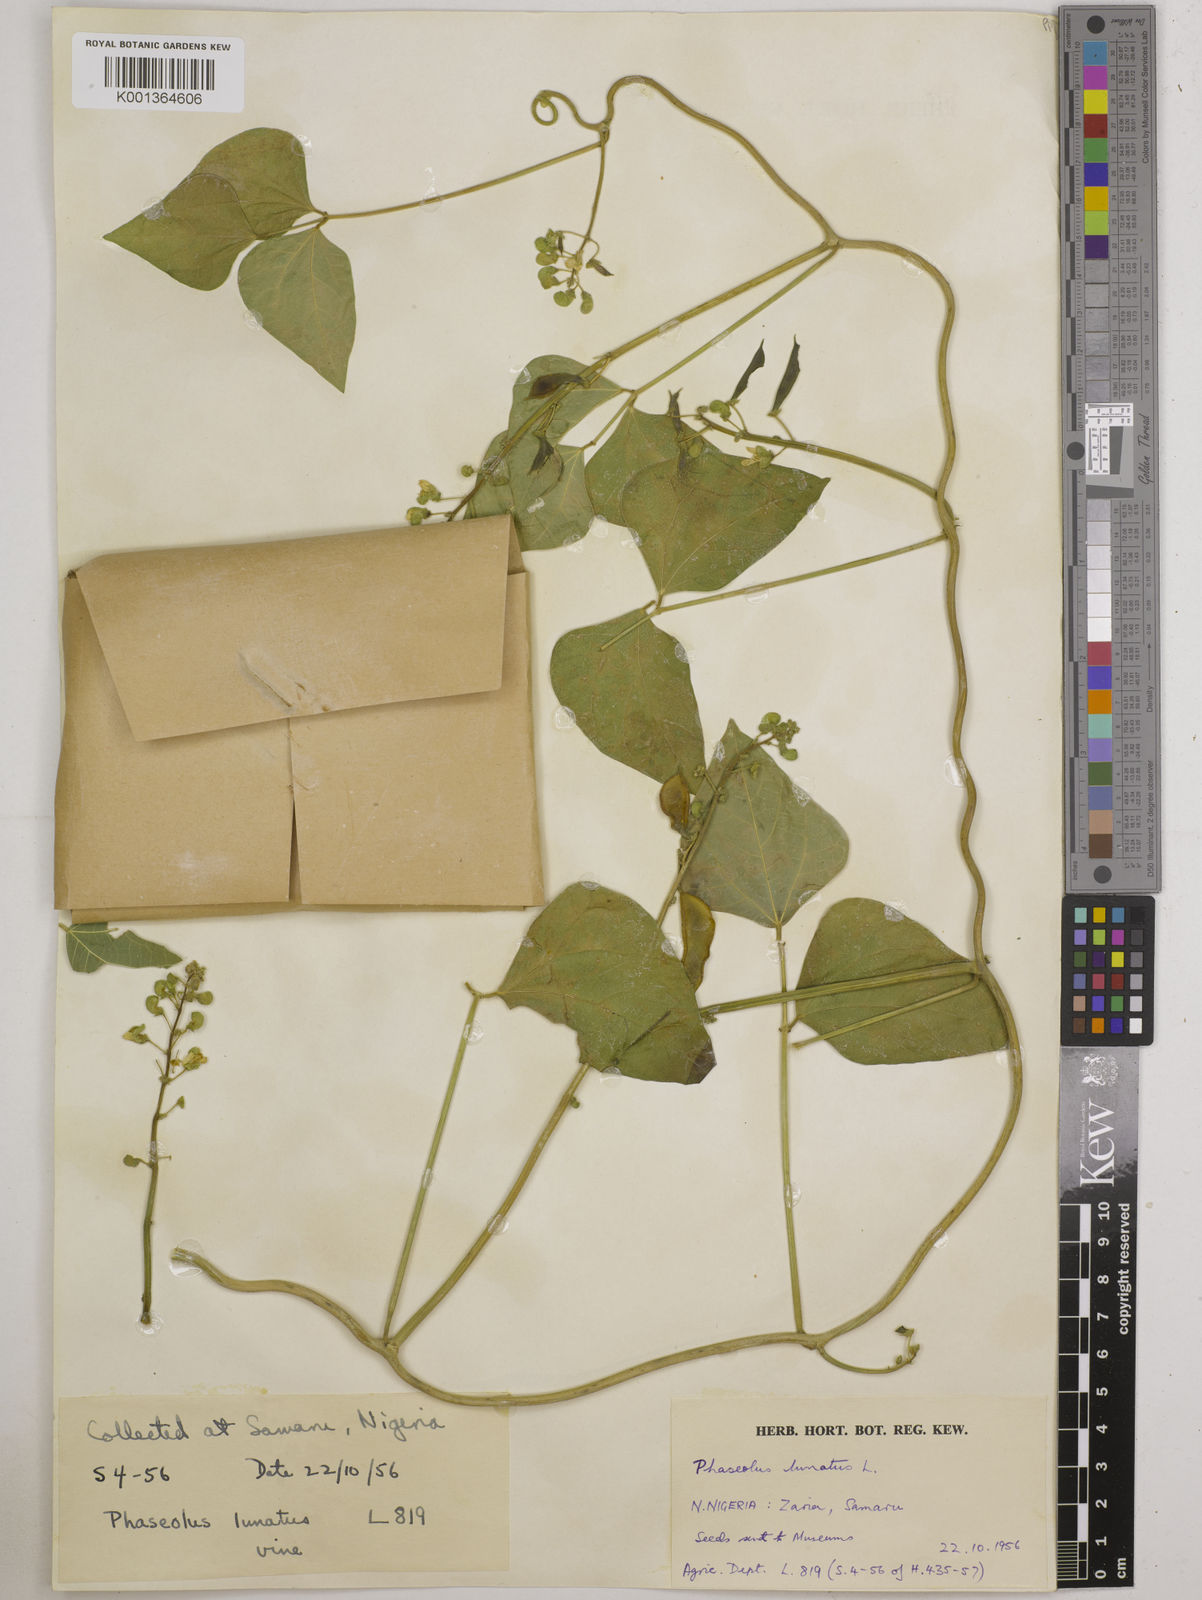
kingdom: Plantae
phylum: Tracheophyta
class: Magnoliopsida
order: Fabales
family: Fabaceae
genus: Phaseolus
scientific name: Phaseolus lunatus
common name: Sieva bean
